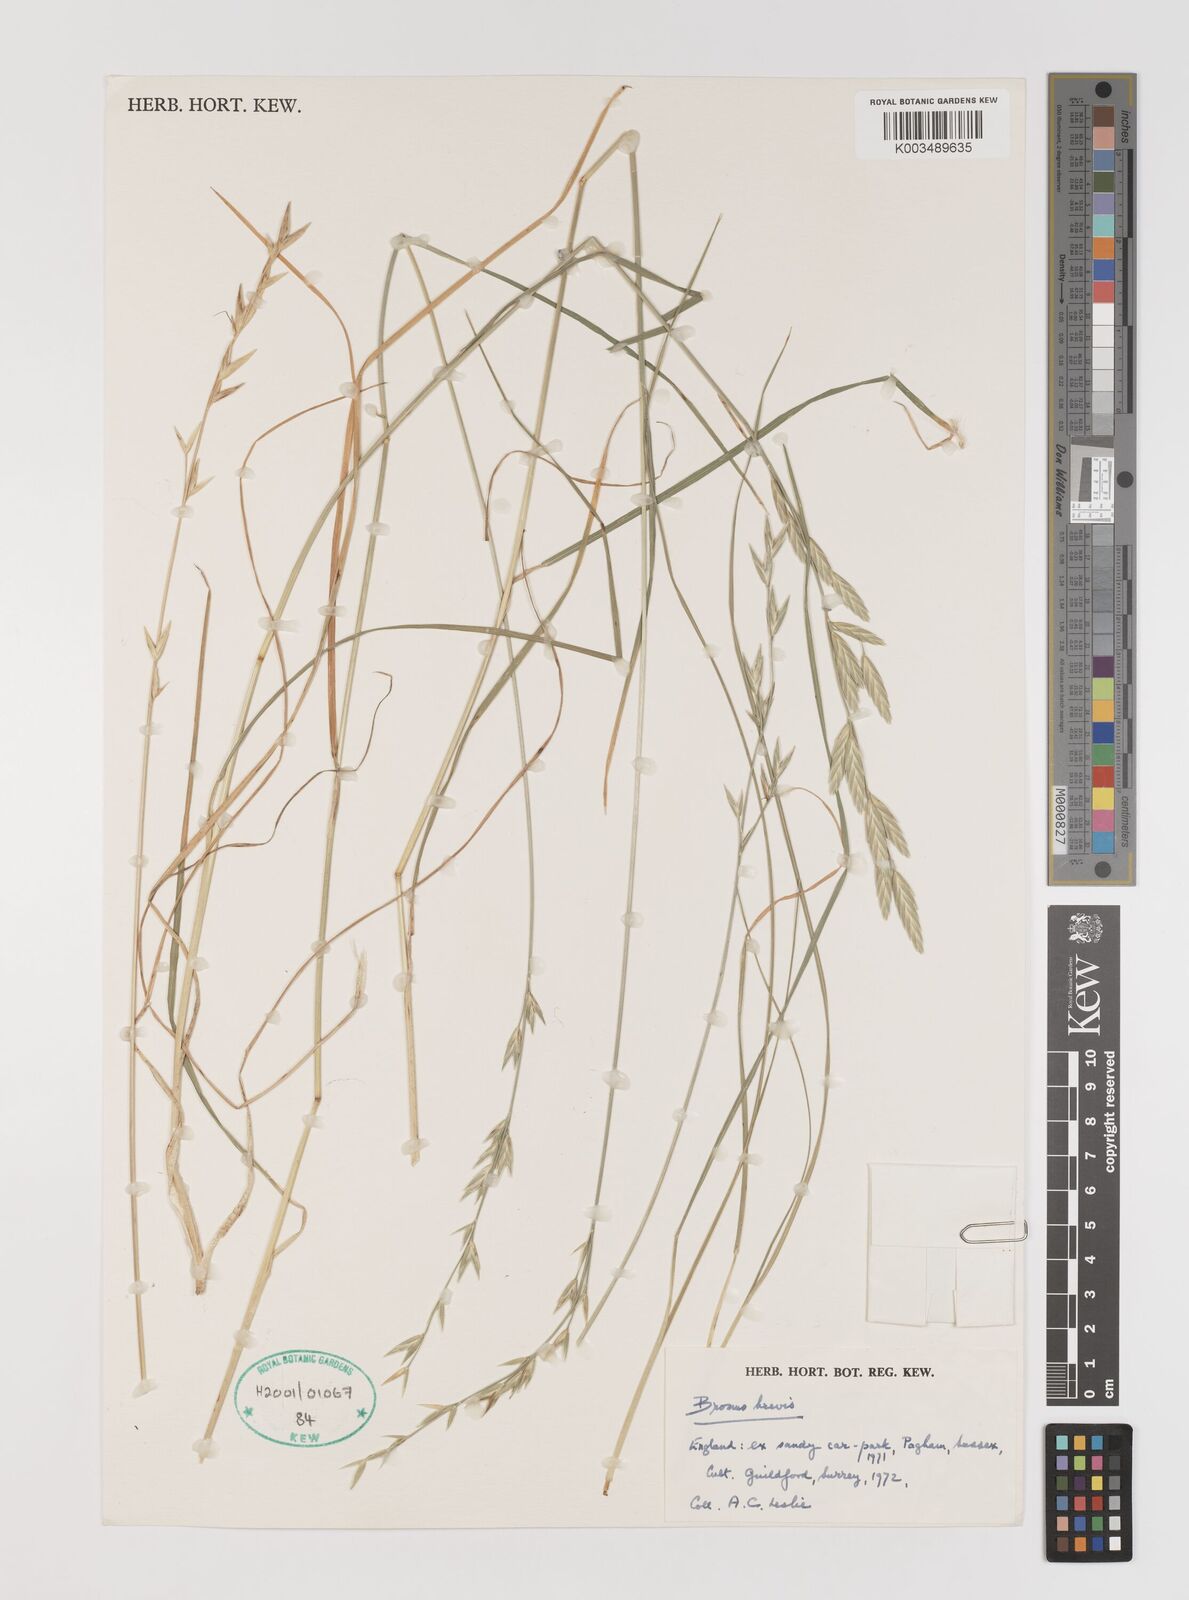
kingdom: Plantae
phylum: Tracheophyta
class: Liliopsida
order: Poales
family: Poaceae
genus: Bromus
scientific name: Bromus catharticus
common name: Rescuegrass
